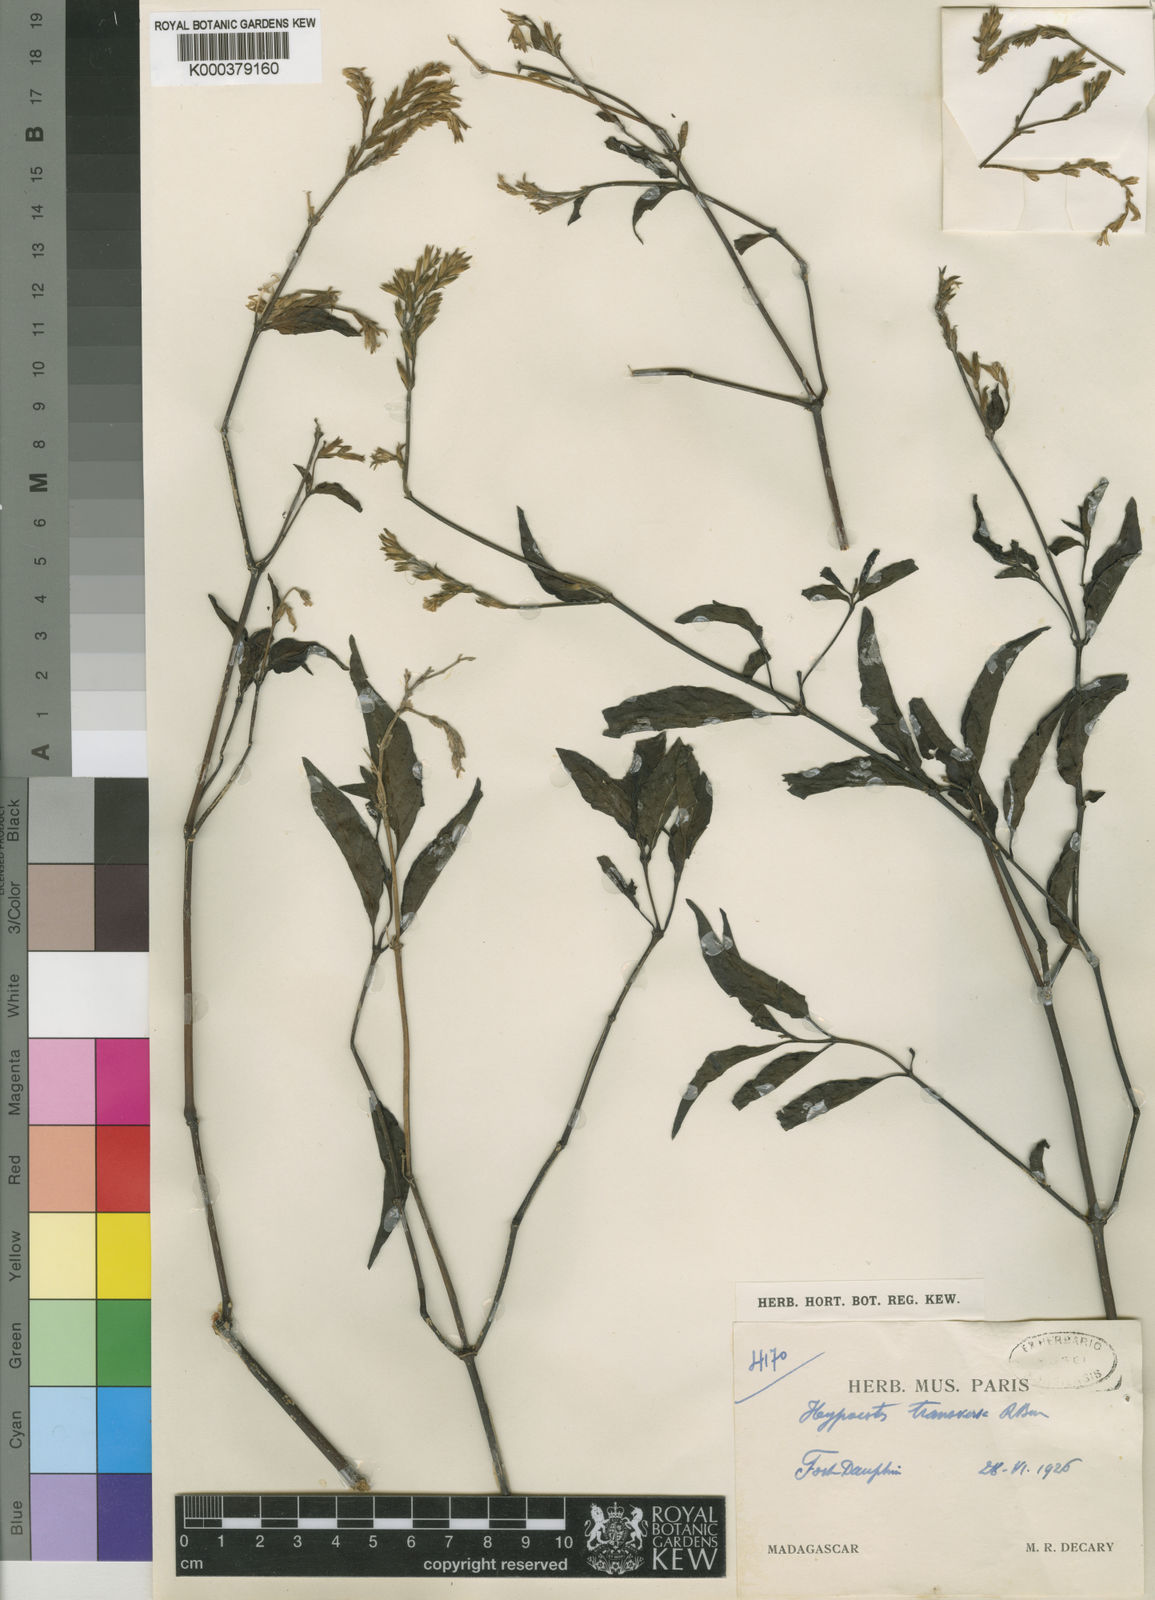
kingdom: Plantae
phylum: Tracheophyta
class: Magnoliopsida
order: Lamiales
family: Acanthaceae
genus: Hypoestes
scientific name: Hypoestes teucrioides
